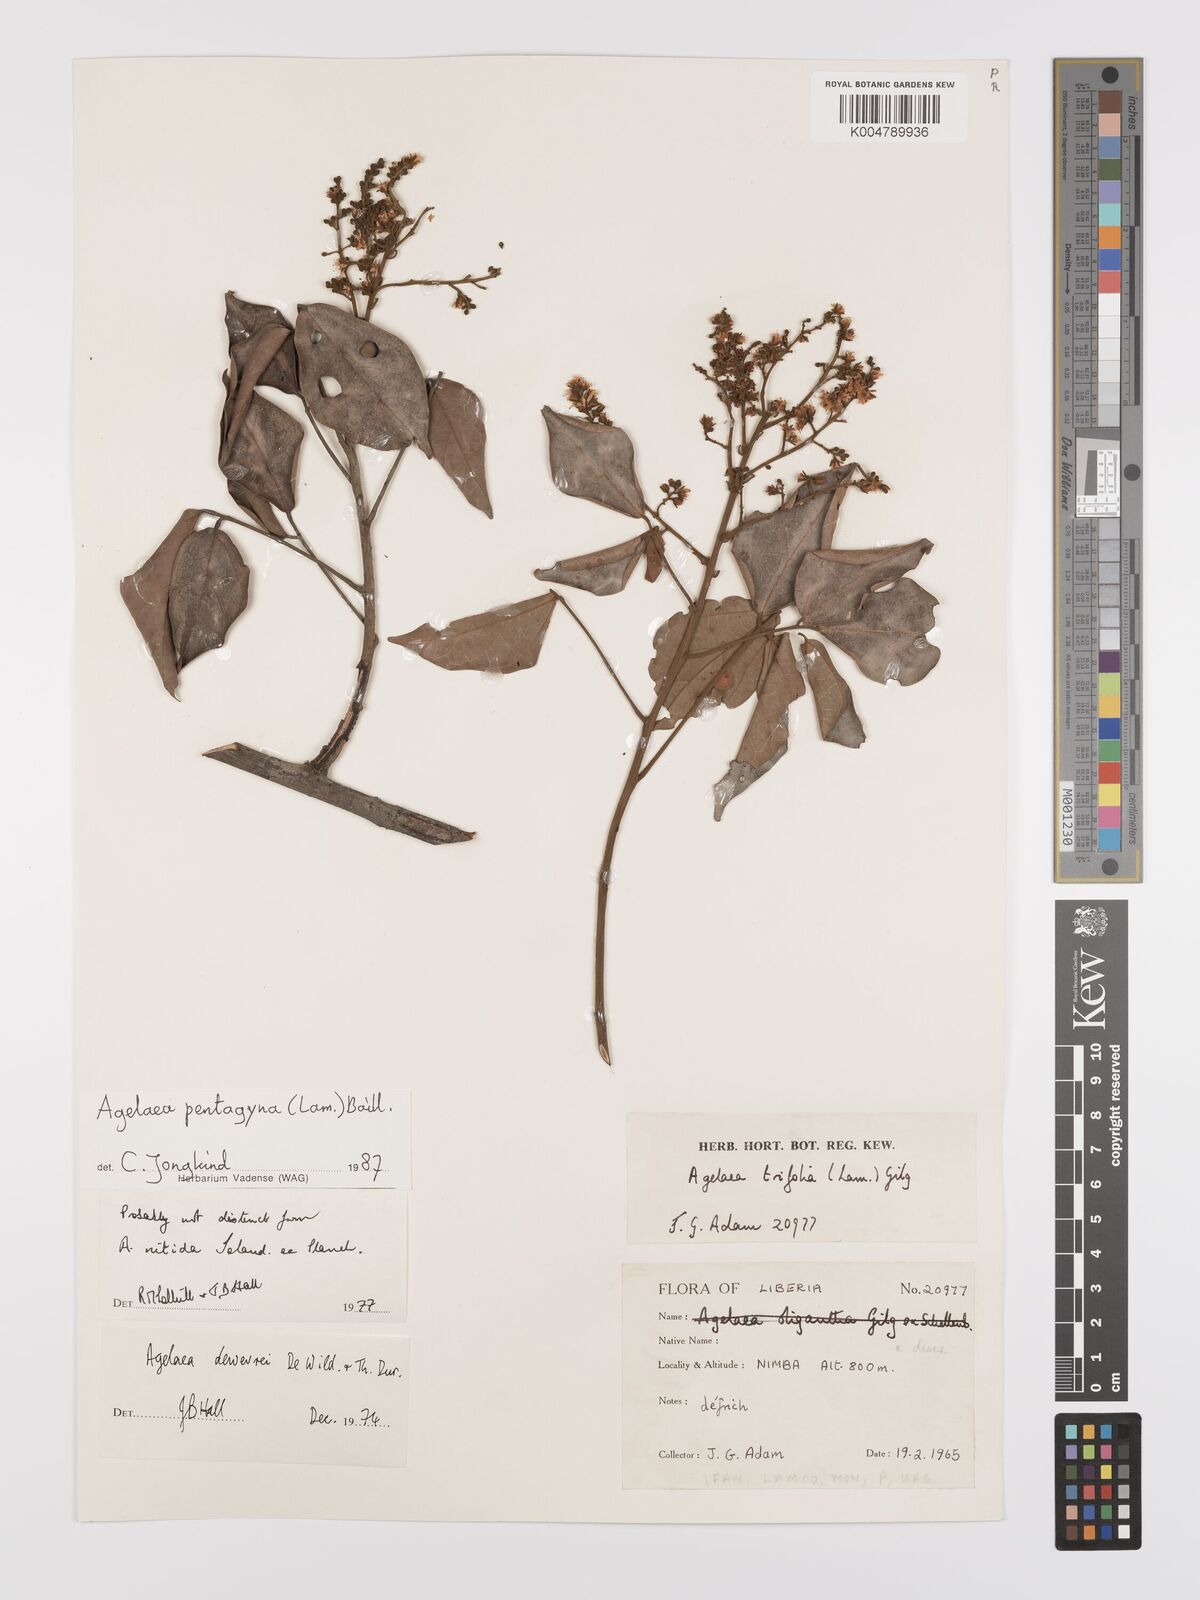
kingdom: Plantae
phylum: Tracheophyta
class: Magnoliopsida
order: Oxalidales
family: Connaraceae
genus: Agelaea
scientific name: Agelaea pentagyna
